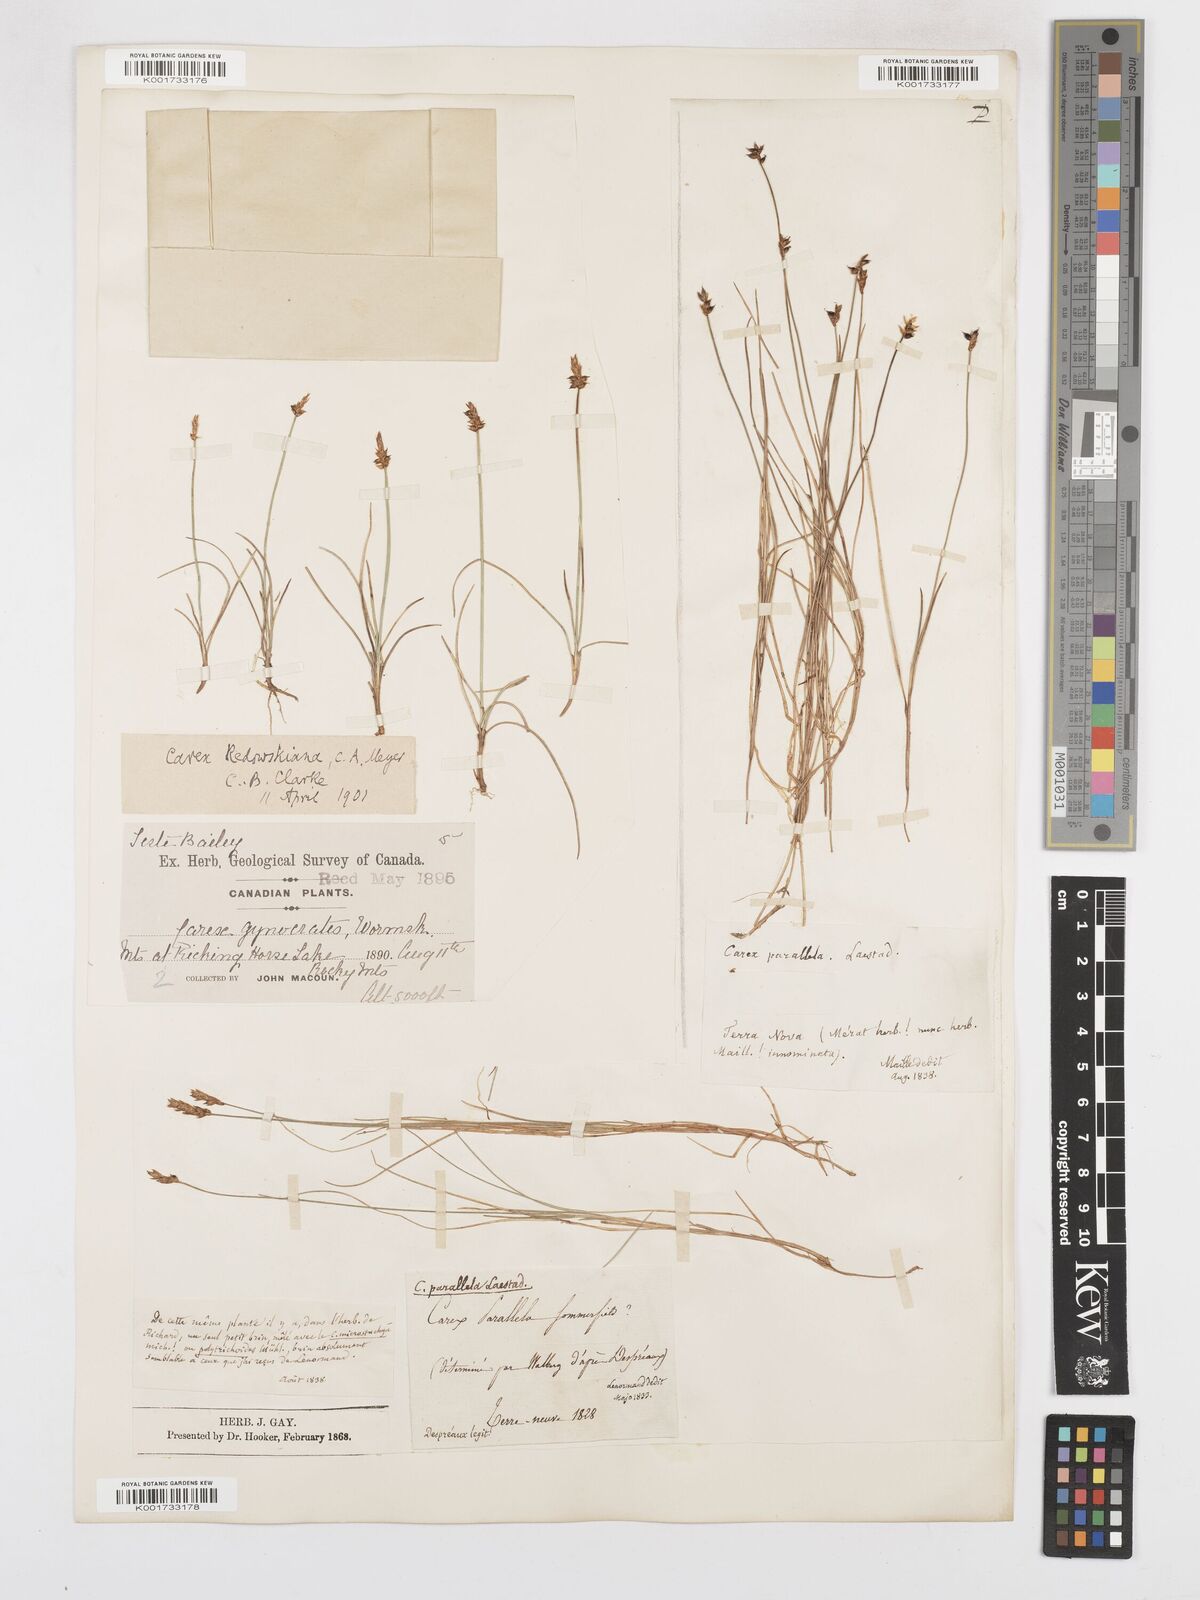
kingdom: Plantae
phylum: Tracheophyta
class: Liliopsida
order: Poales
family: Cyperaceae
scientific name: Cyperaceae
